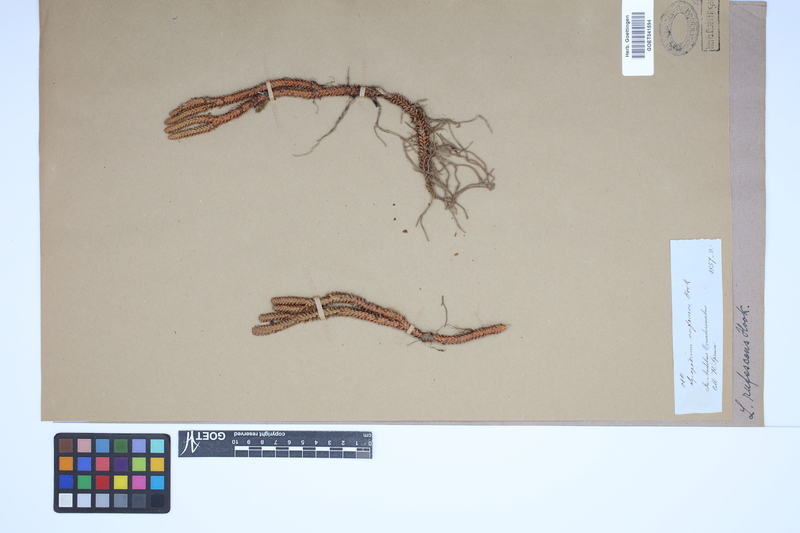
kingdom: Plantae
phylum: Tracheophyta
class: Lycopodiopsida
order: Lycopodiales
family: Lycopodiaceae
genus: Phlegmariurus
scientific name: Phlegmariurus rufescens
